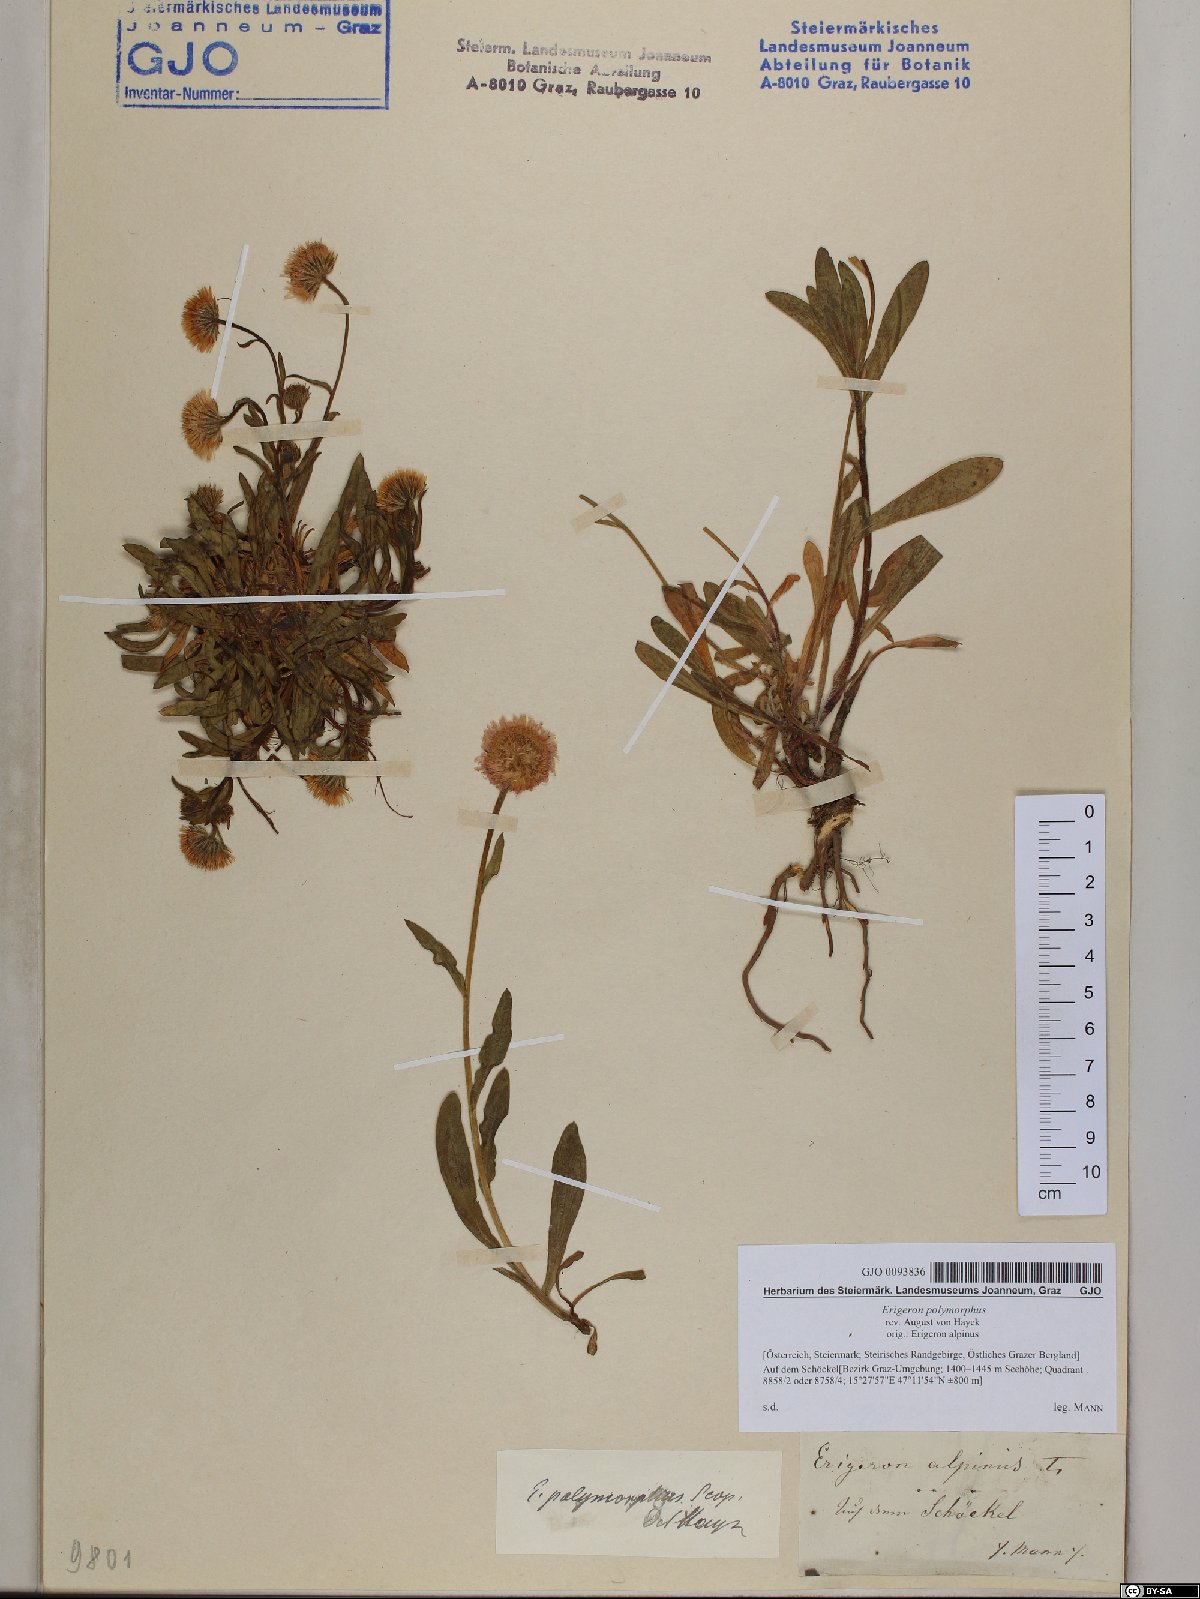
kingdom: Plantae
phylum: Tracheophyta
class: Magnoliopsida
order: Asterales
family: Asteraceae
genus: Erigeron
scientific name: Erigeron alpinus
